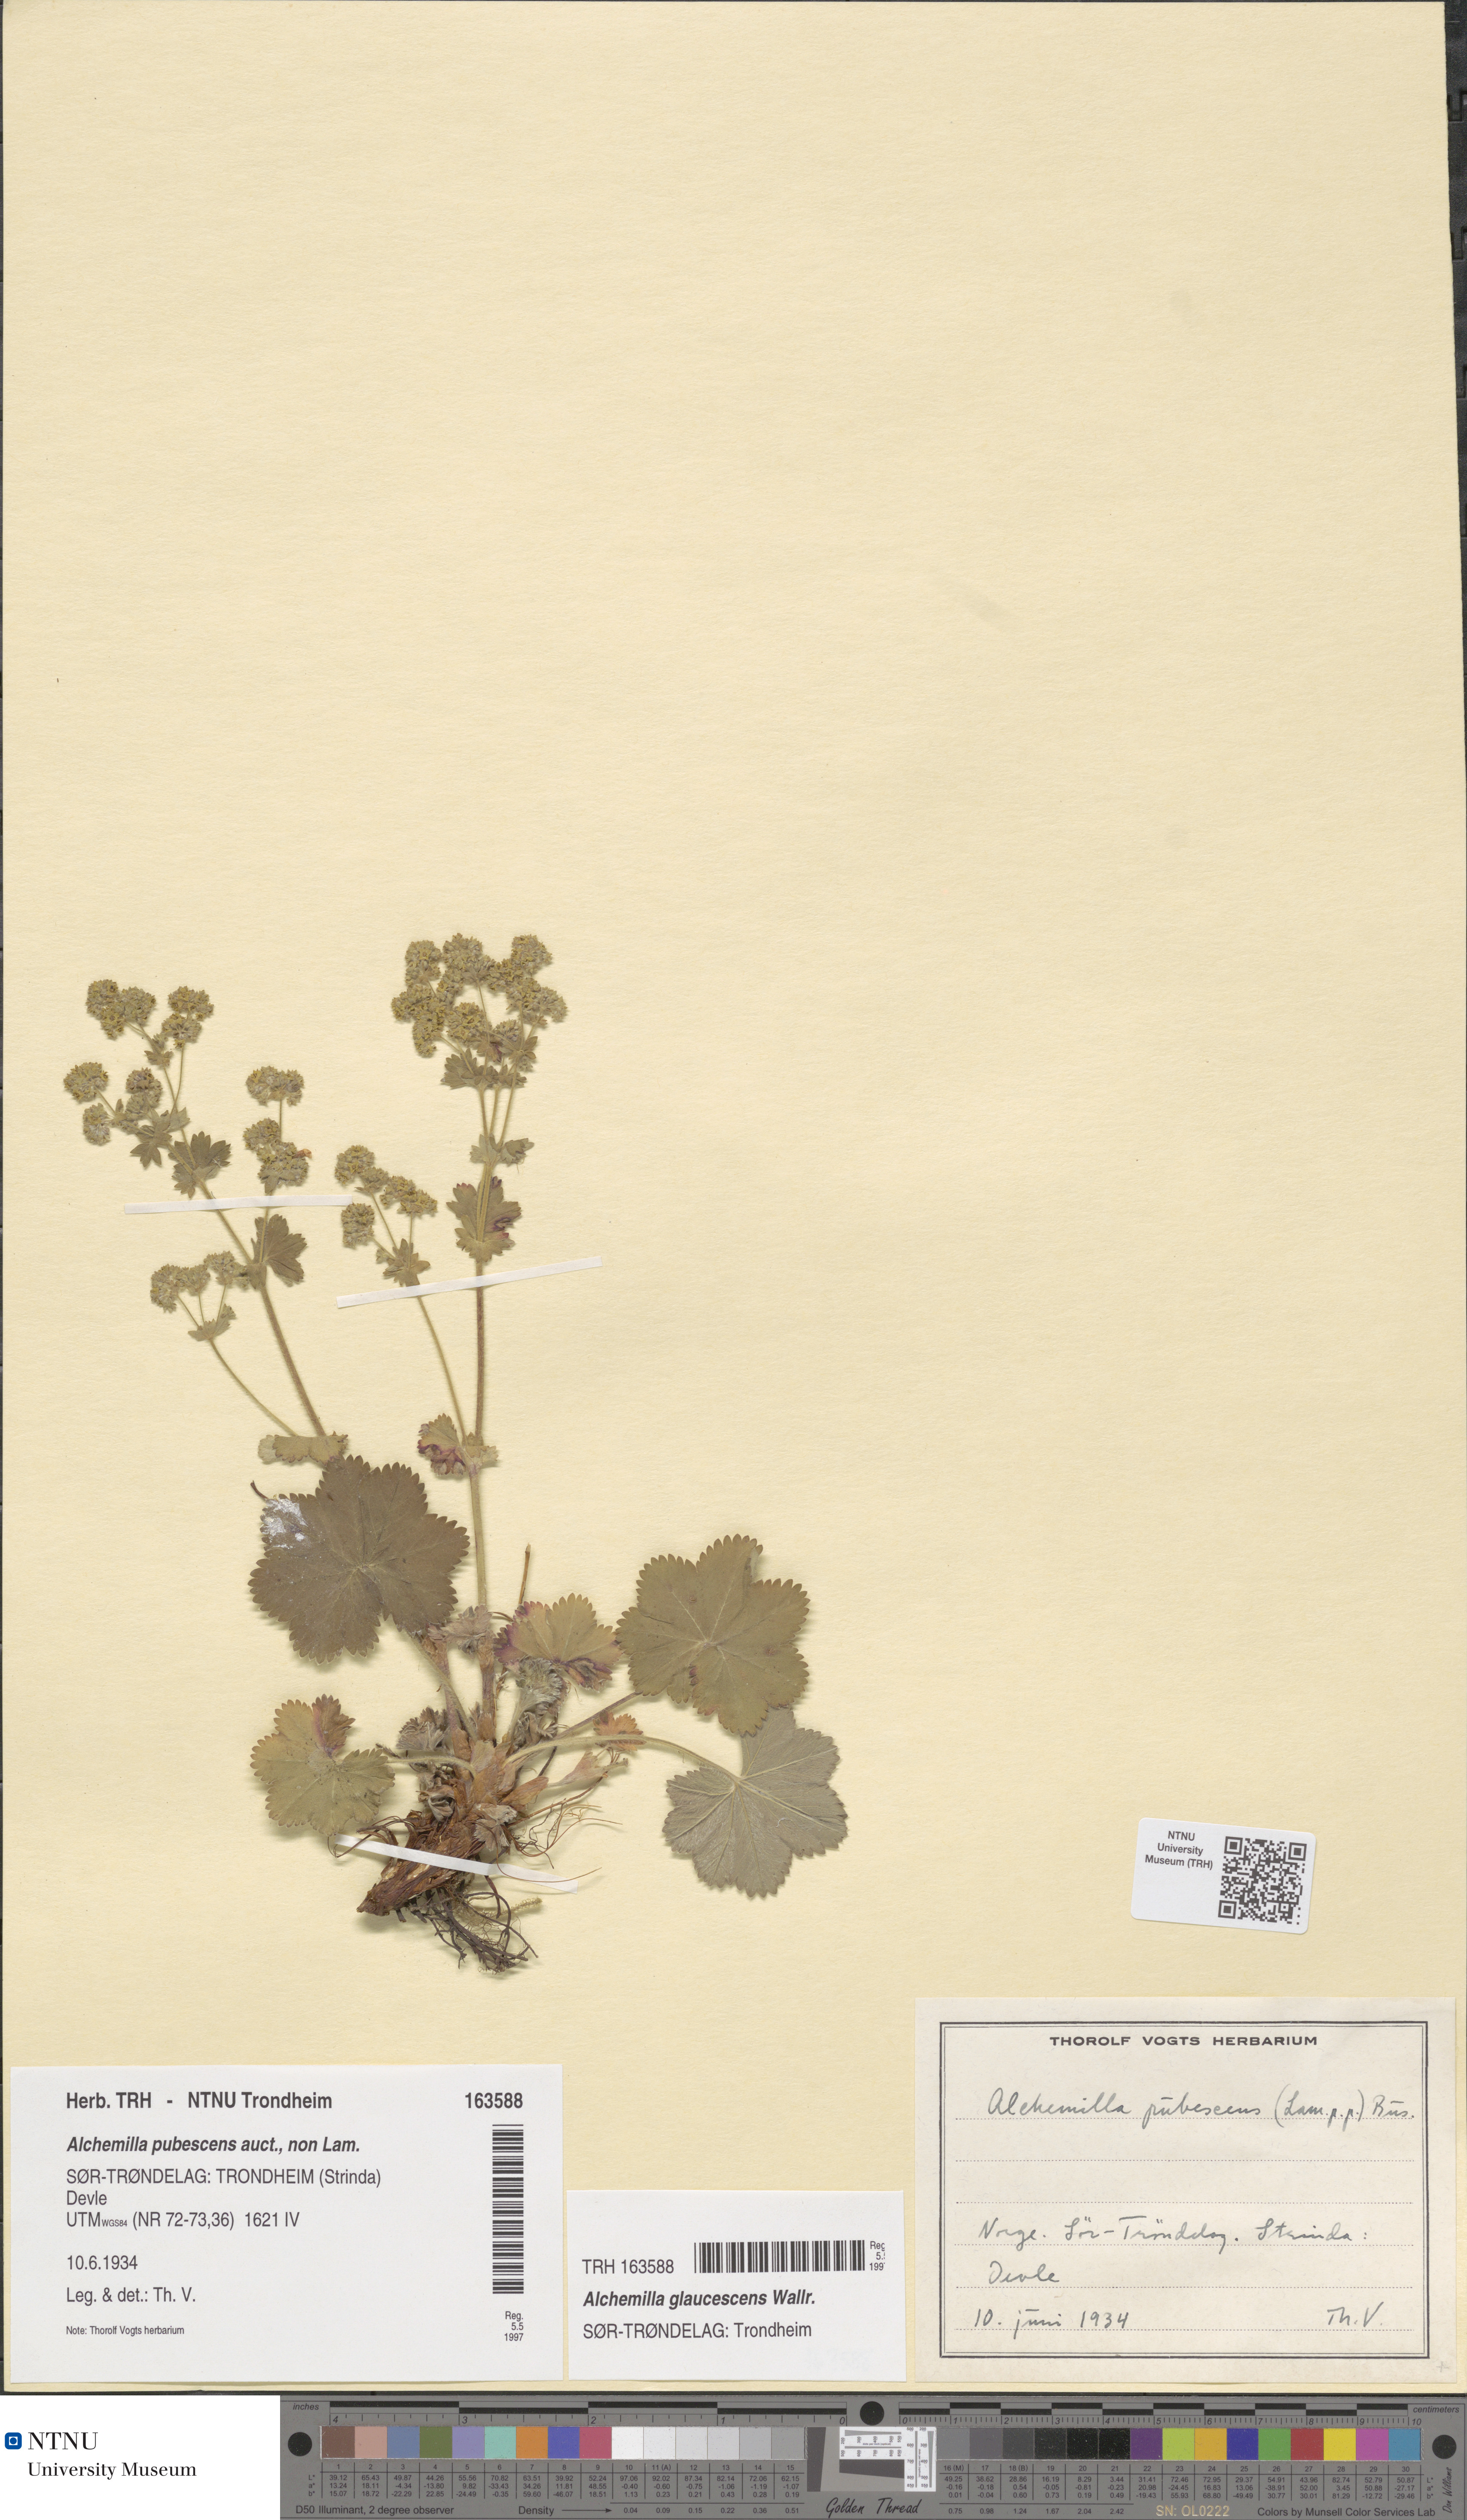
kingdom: Plantae
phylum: Tracheophyta
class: Magnoliopsida
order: Rosales
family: Rosaceae
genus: Alchemilla
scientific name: Alchemilla glaucescens
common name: Silky lady's mantle
